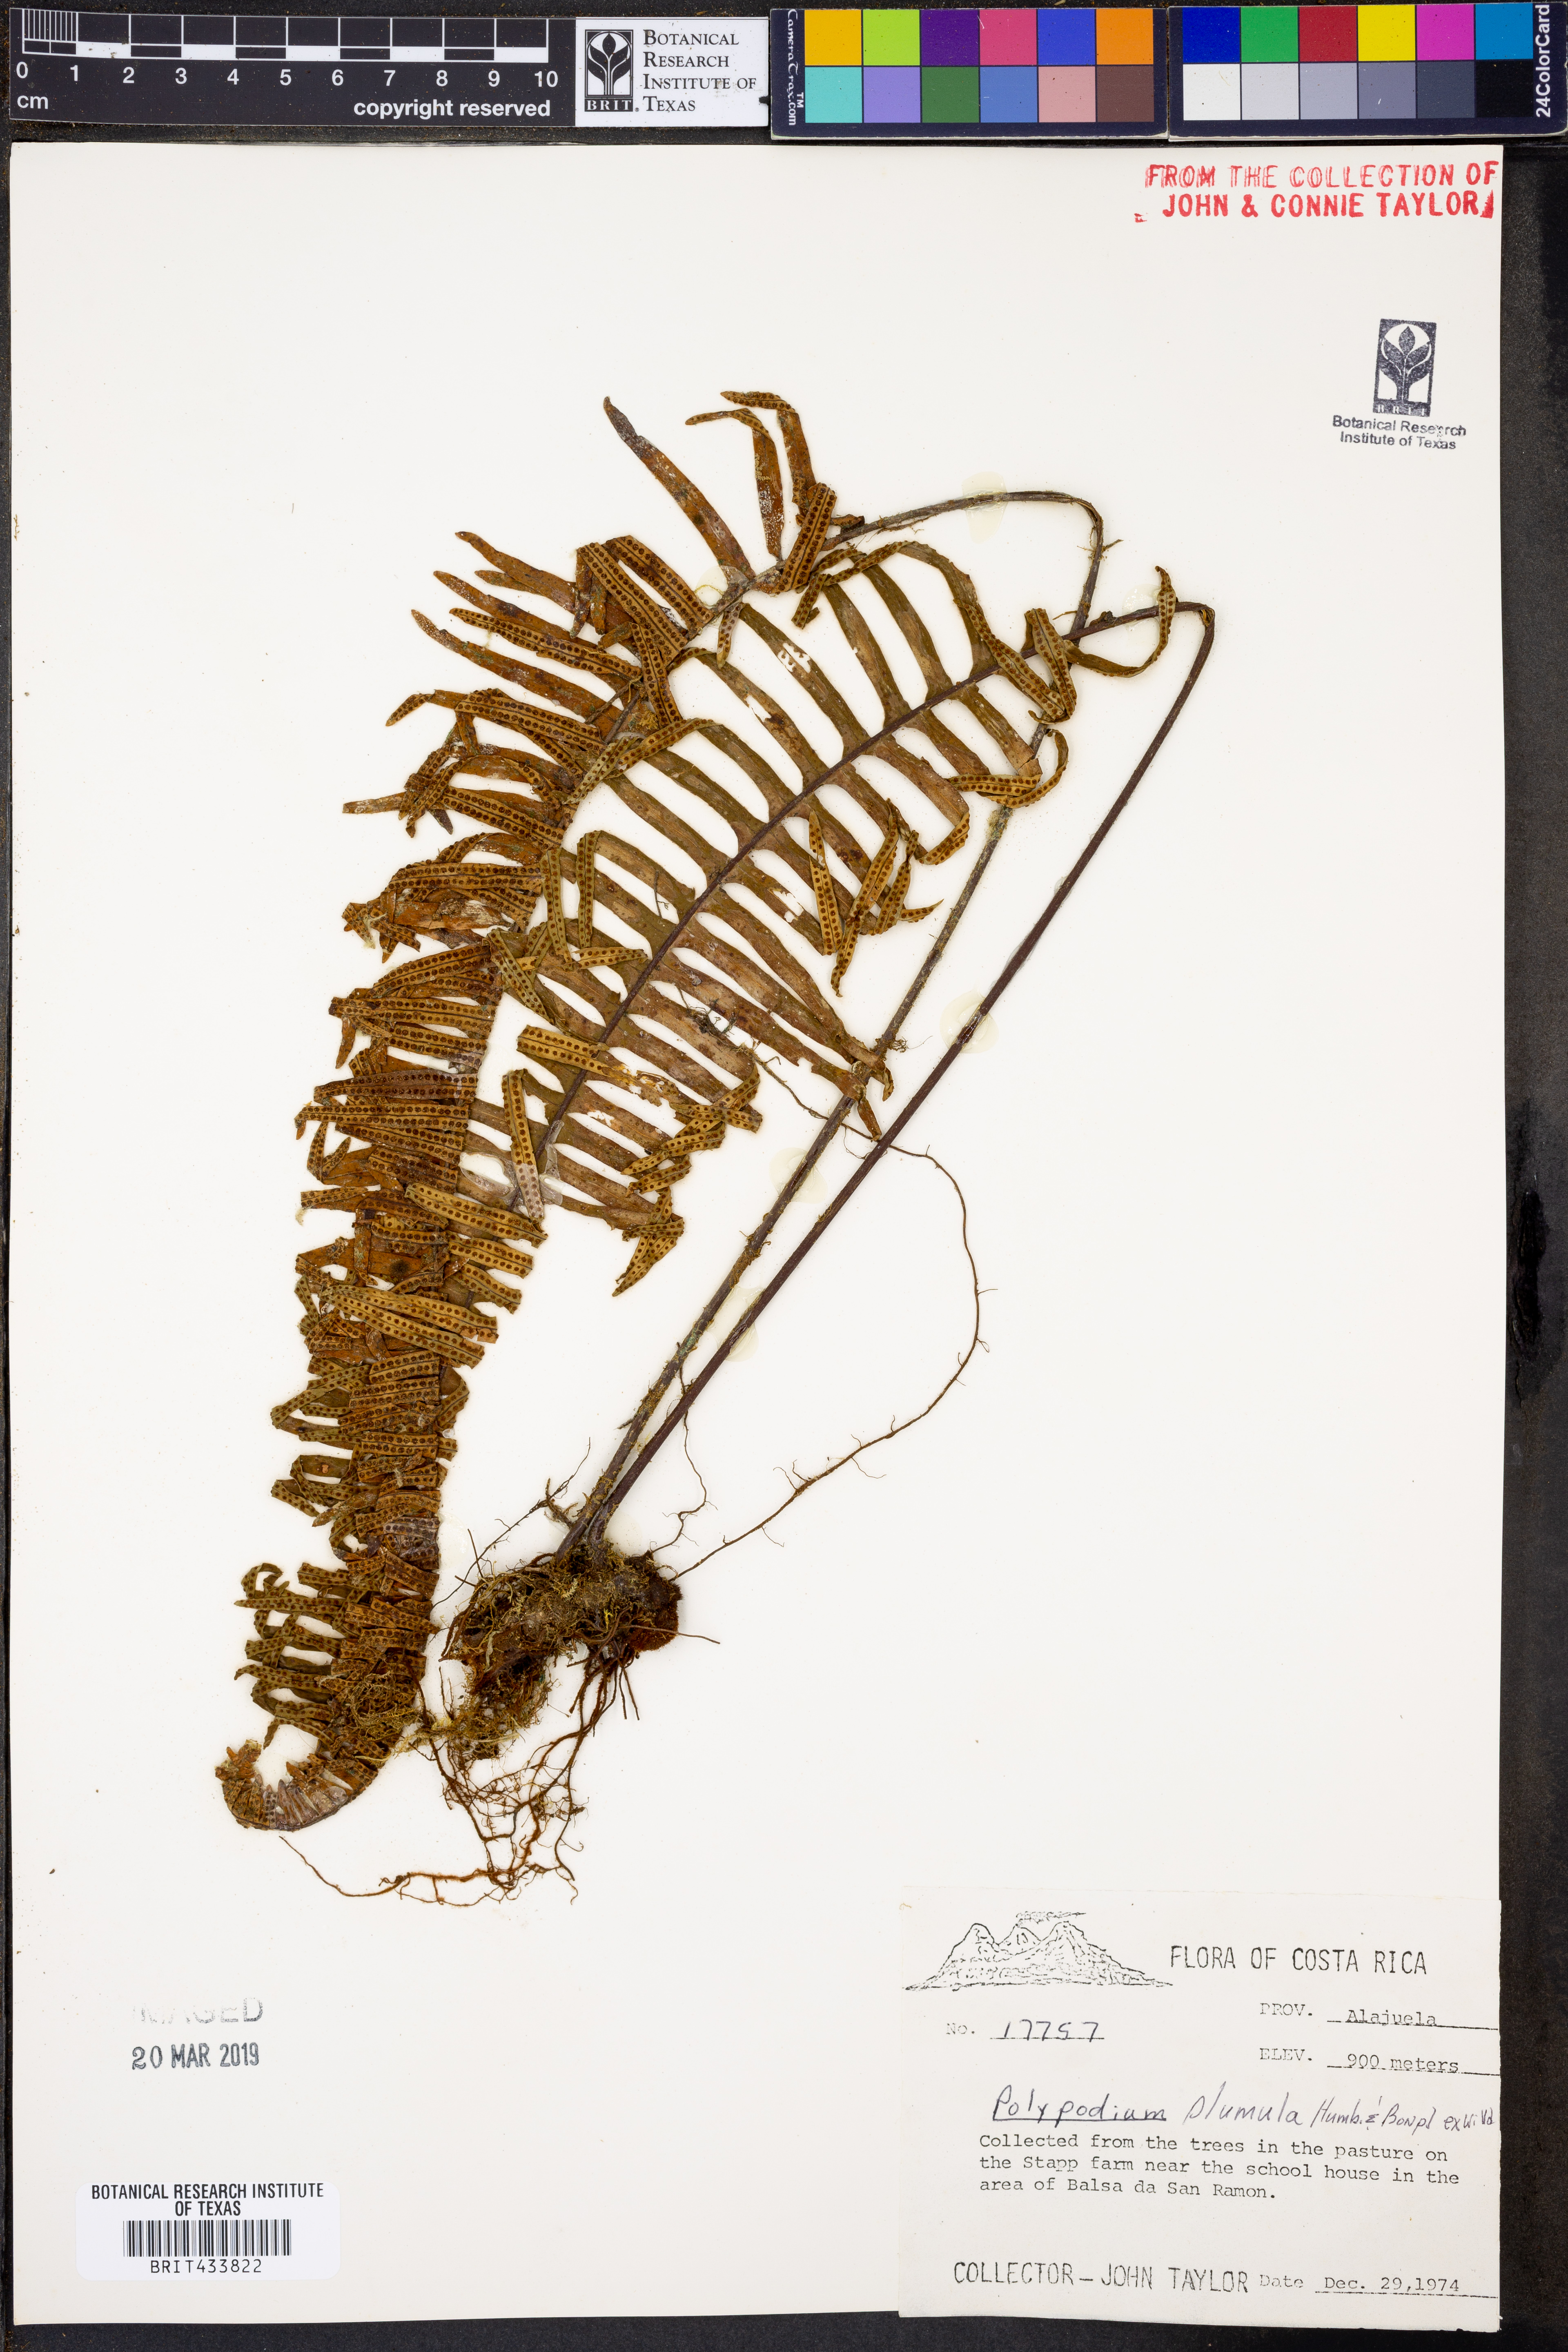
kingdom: Plantae
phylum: Tracheophyta
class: Polypodiopsida
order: Polypodiales
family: Polypodiaceae
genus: Pecluma
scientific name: Pecluma plumula
